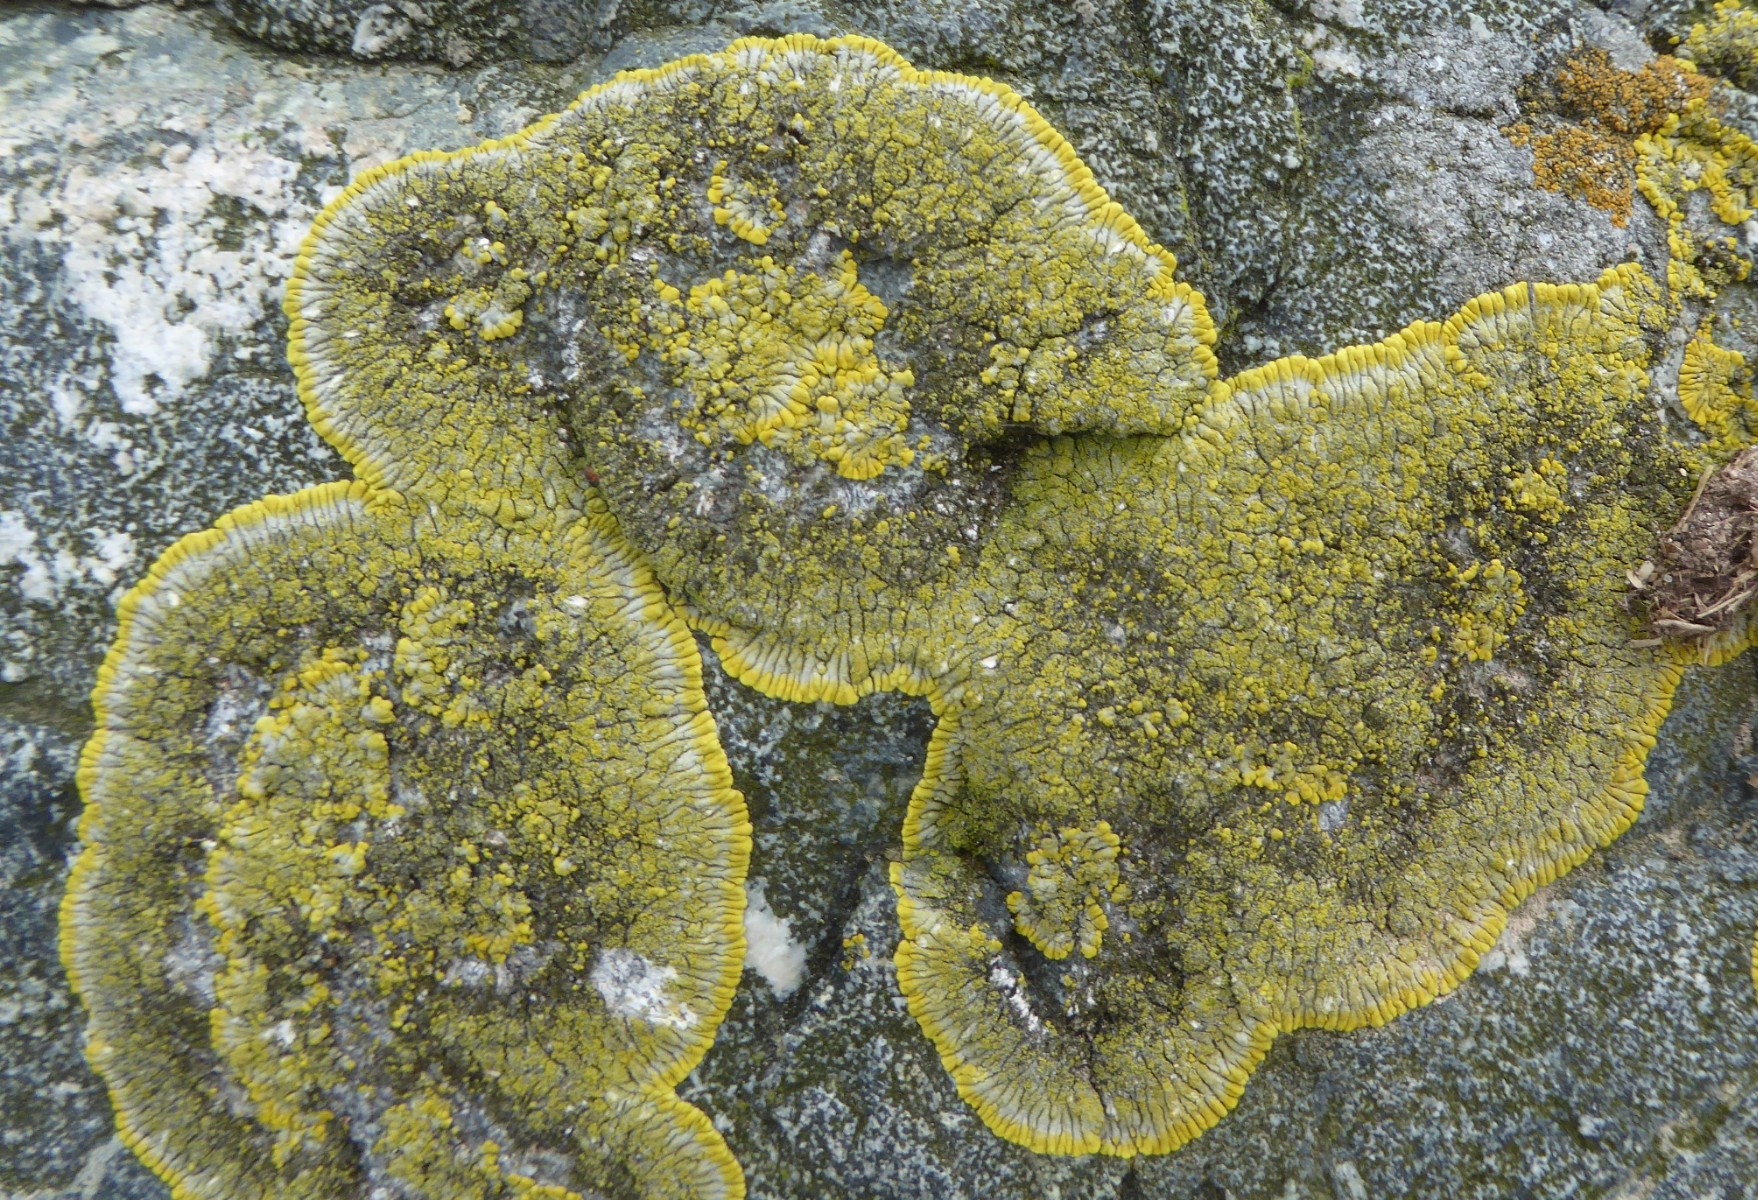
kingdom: Fungi
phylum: Ascomycota
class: Lecanoromycetes
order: Teloschistales
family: Teloschistaceae
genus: Verrucoplaca
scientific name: Verrucoplaca verruculifera
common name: koldkyst-orangelav
